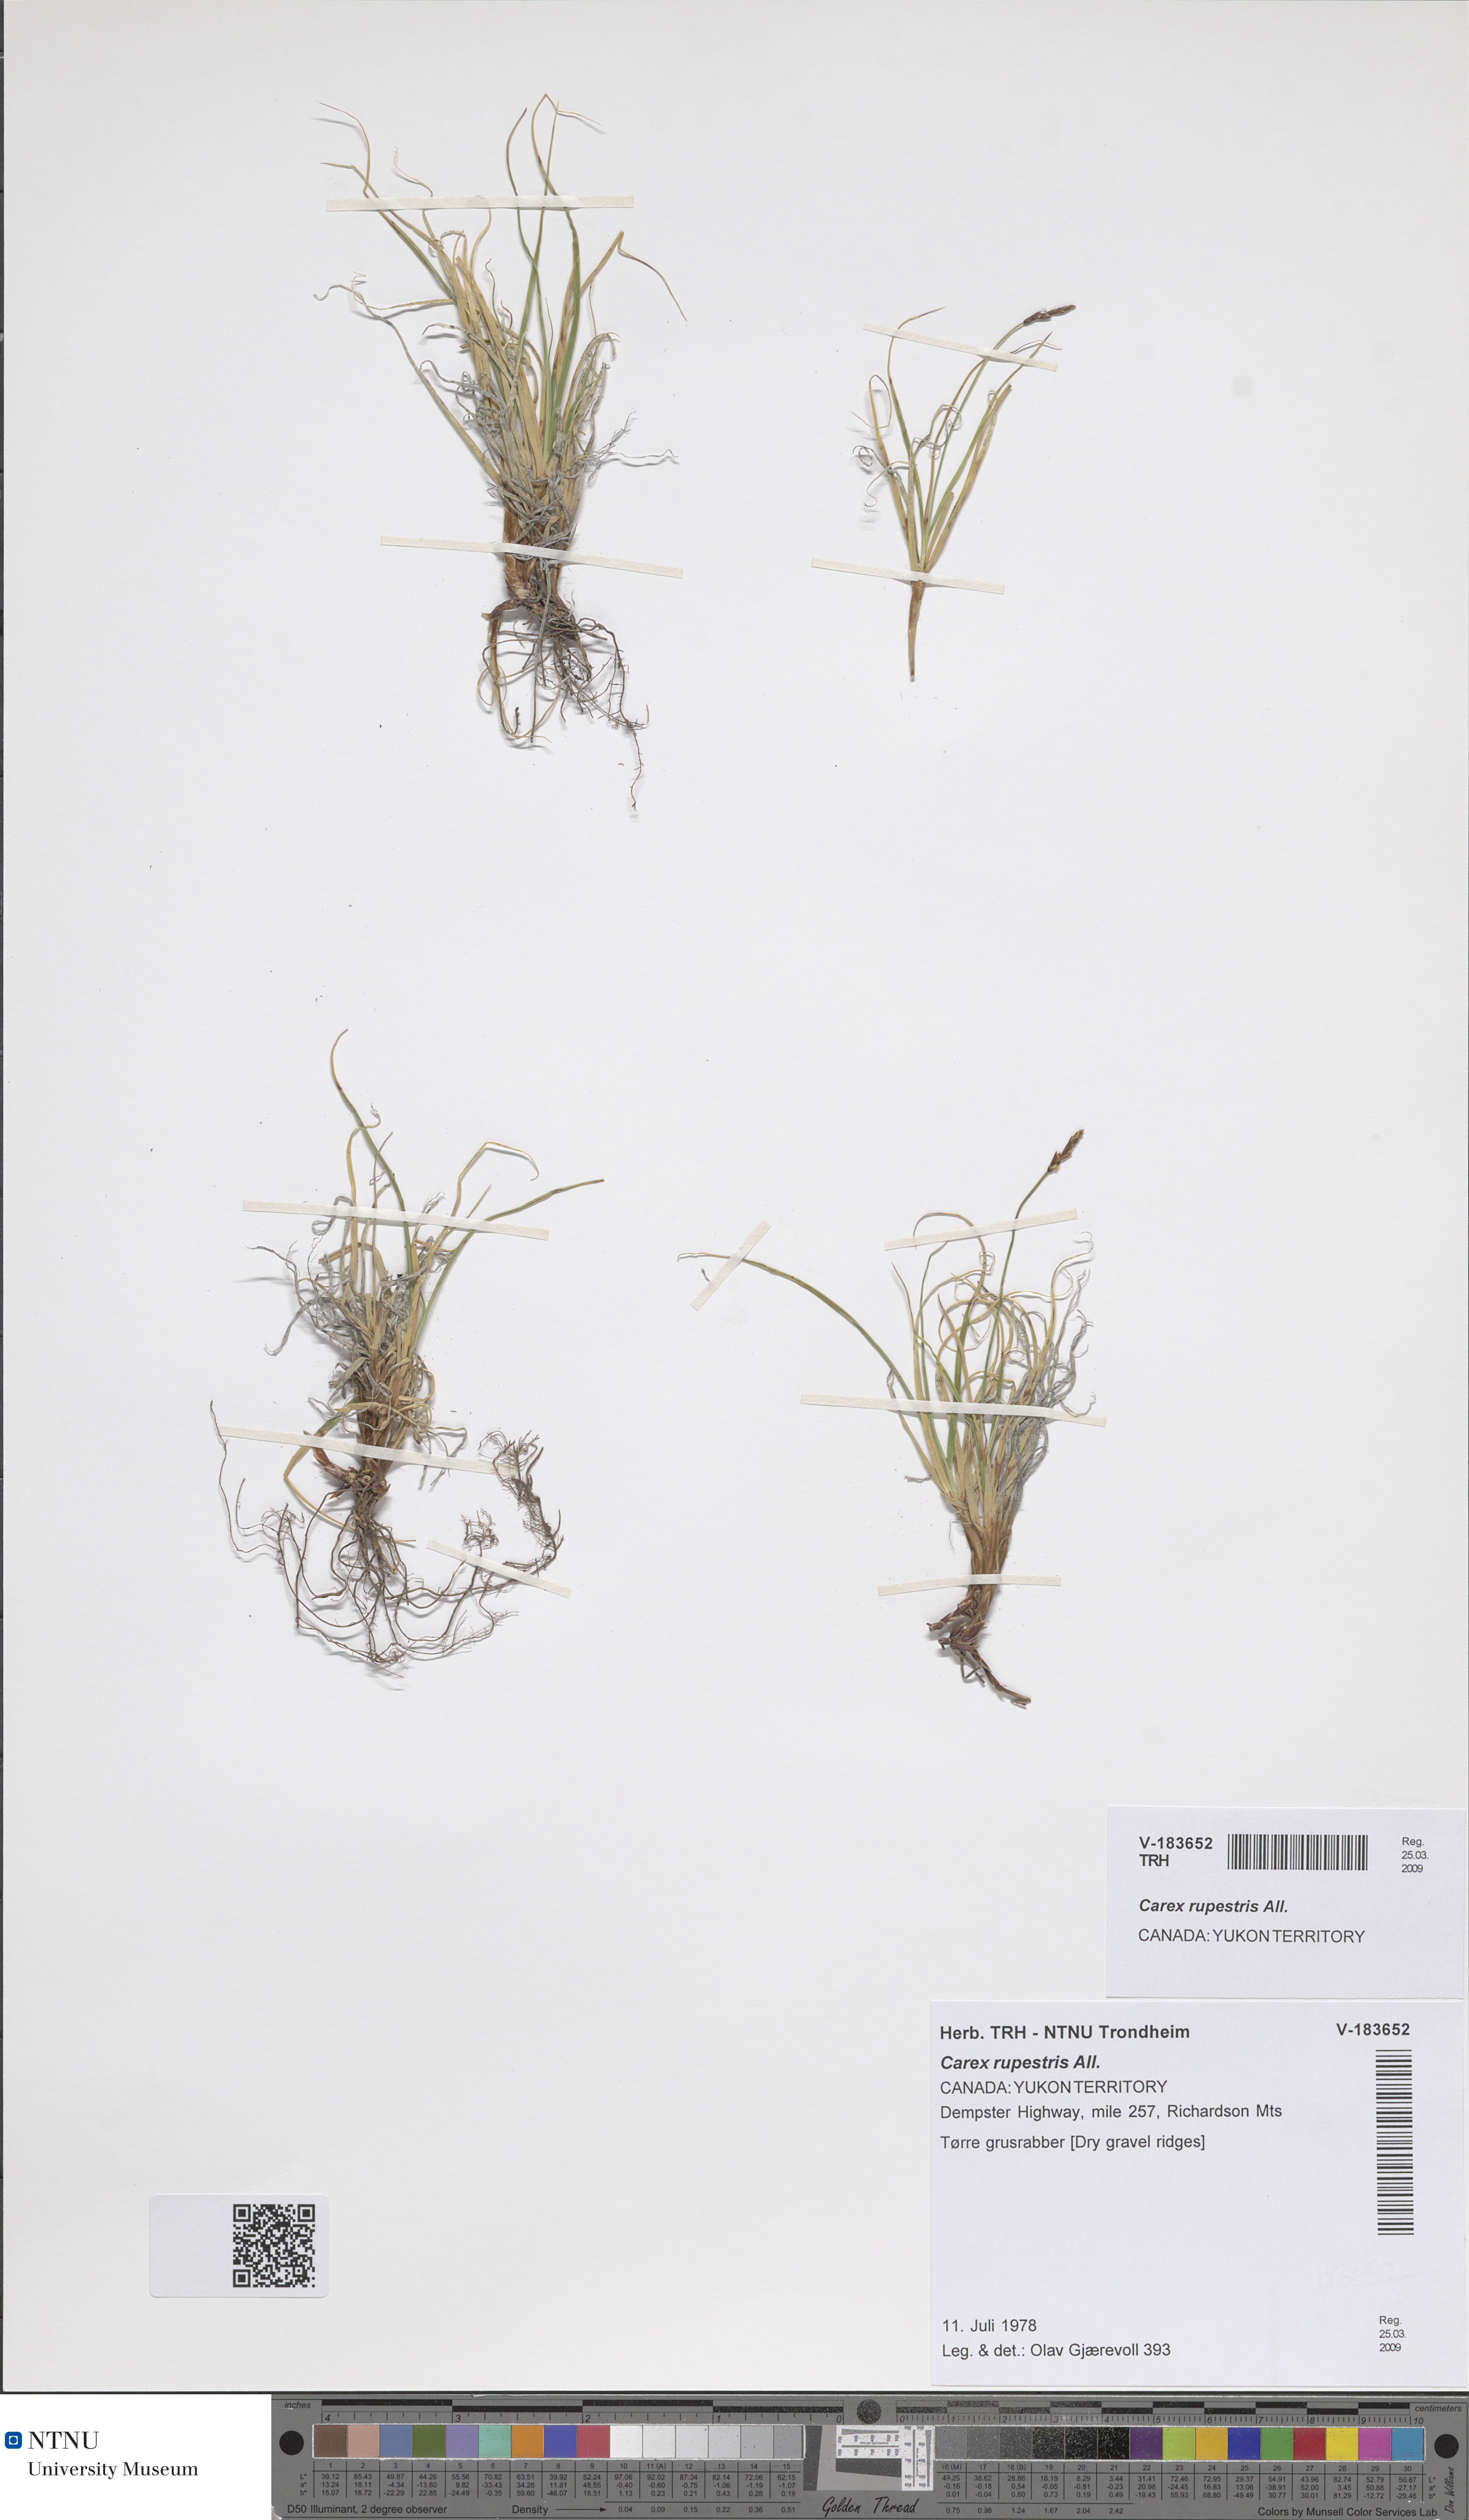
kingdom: Plantae
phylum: Tracheophyta
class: Liliopsida
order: Poales
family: Cyperaceae
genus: Carex
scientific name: Carex rupestris
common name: Rock sedge
